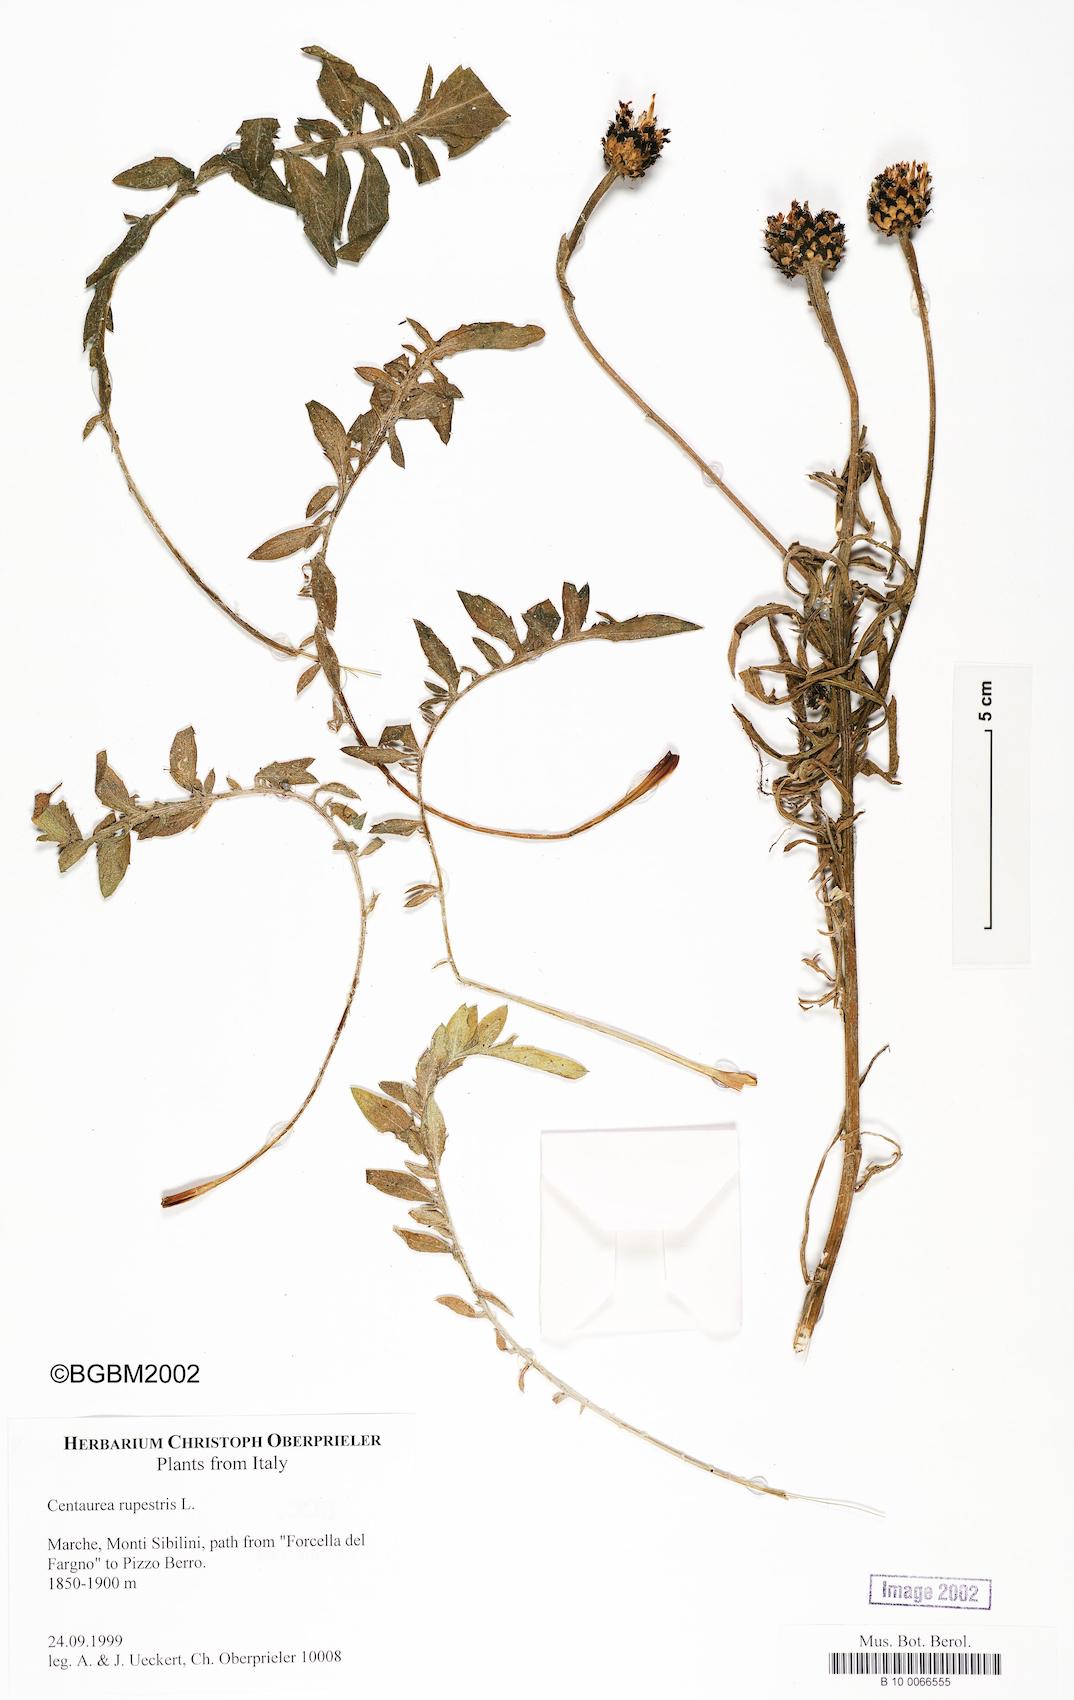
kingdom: Plantae
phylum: Tracheophyta
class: Magnoliopsida
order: Asterales
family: Asteraceae
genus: Centaurea
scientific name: Centaurea rupestris
